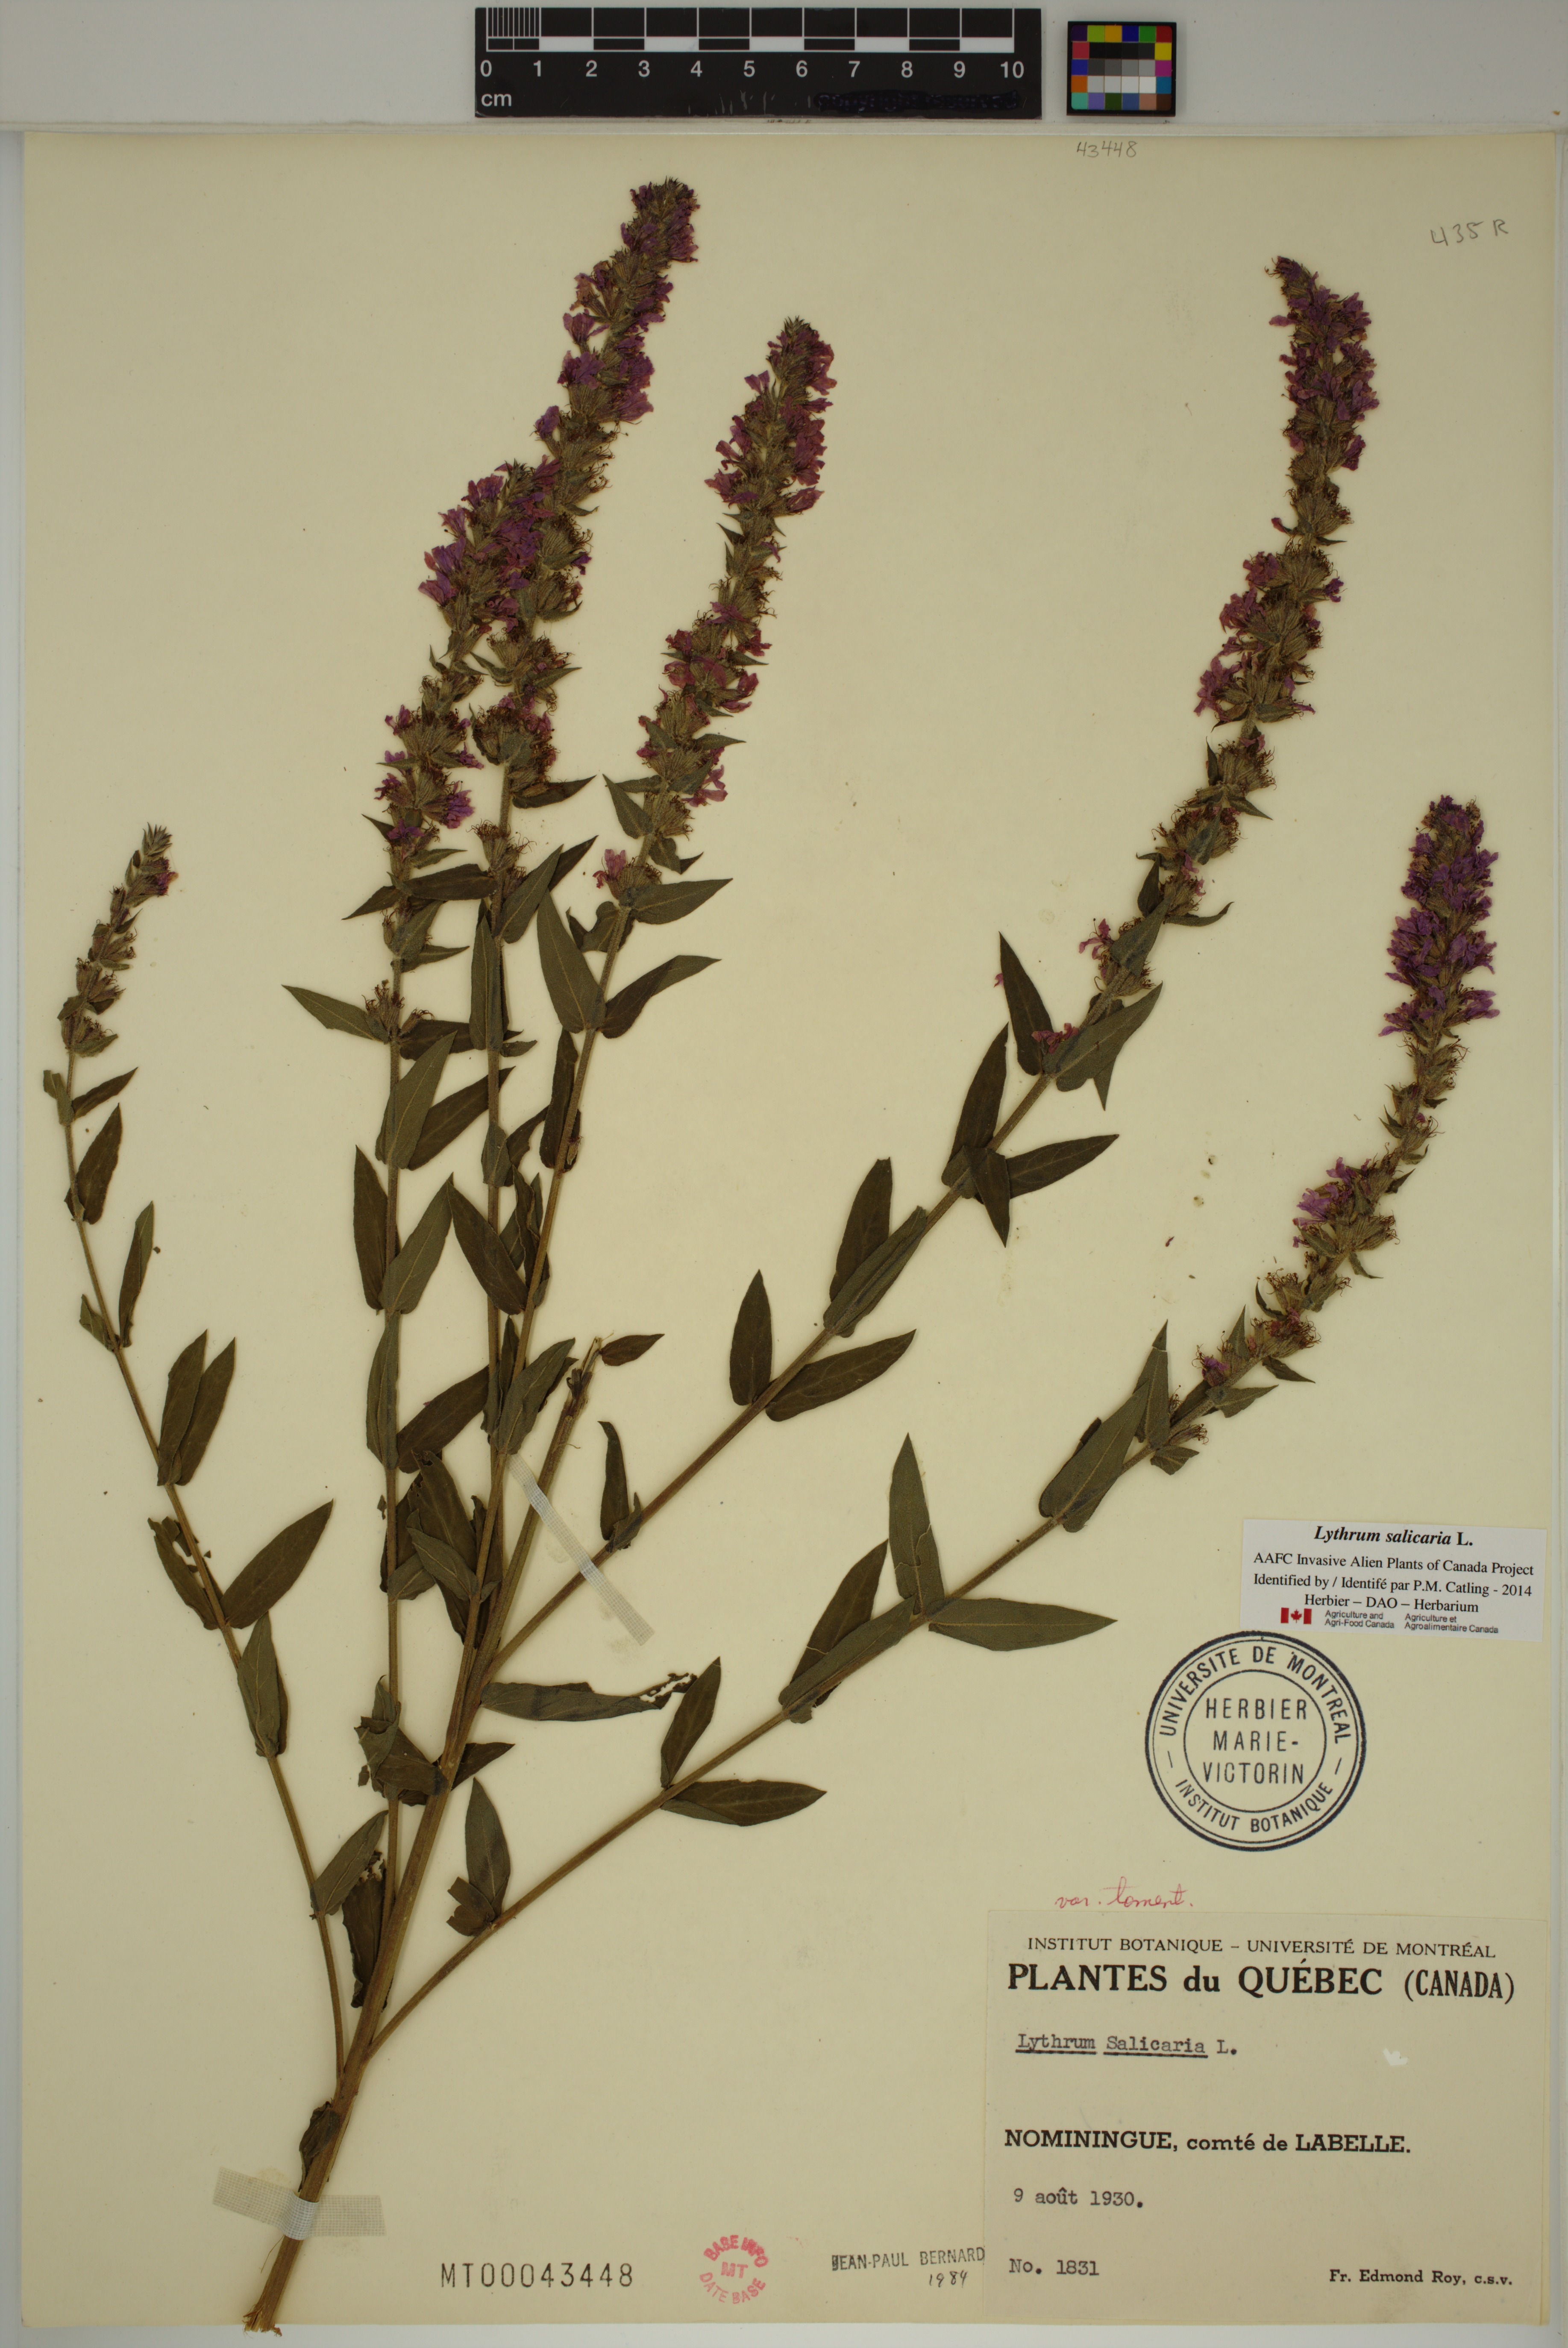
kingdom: Plantae
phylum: Tracheophyta
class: Magnoliopsida
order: Myrtales
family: Lythraceae
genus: Lythrum
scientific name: Lythrum salicaria
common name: Purple loosestrife
